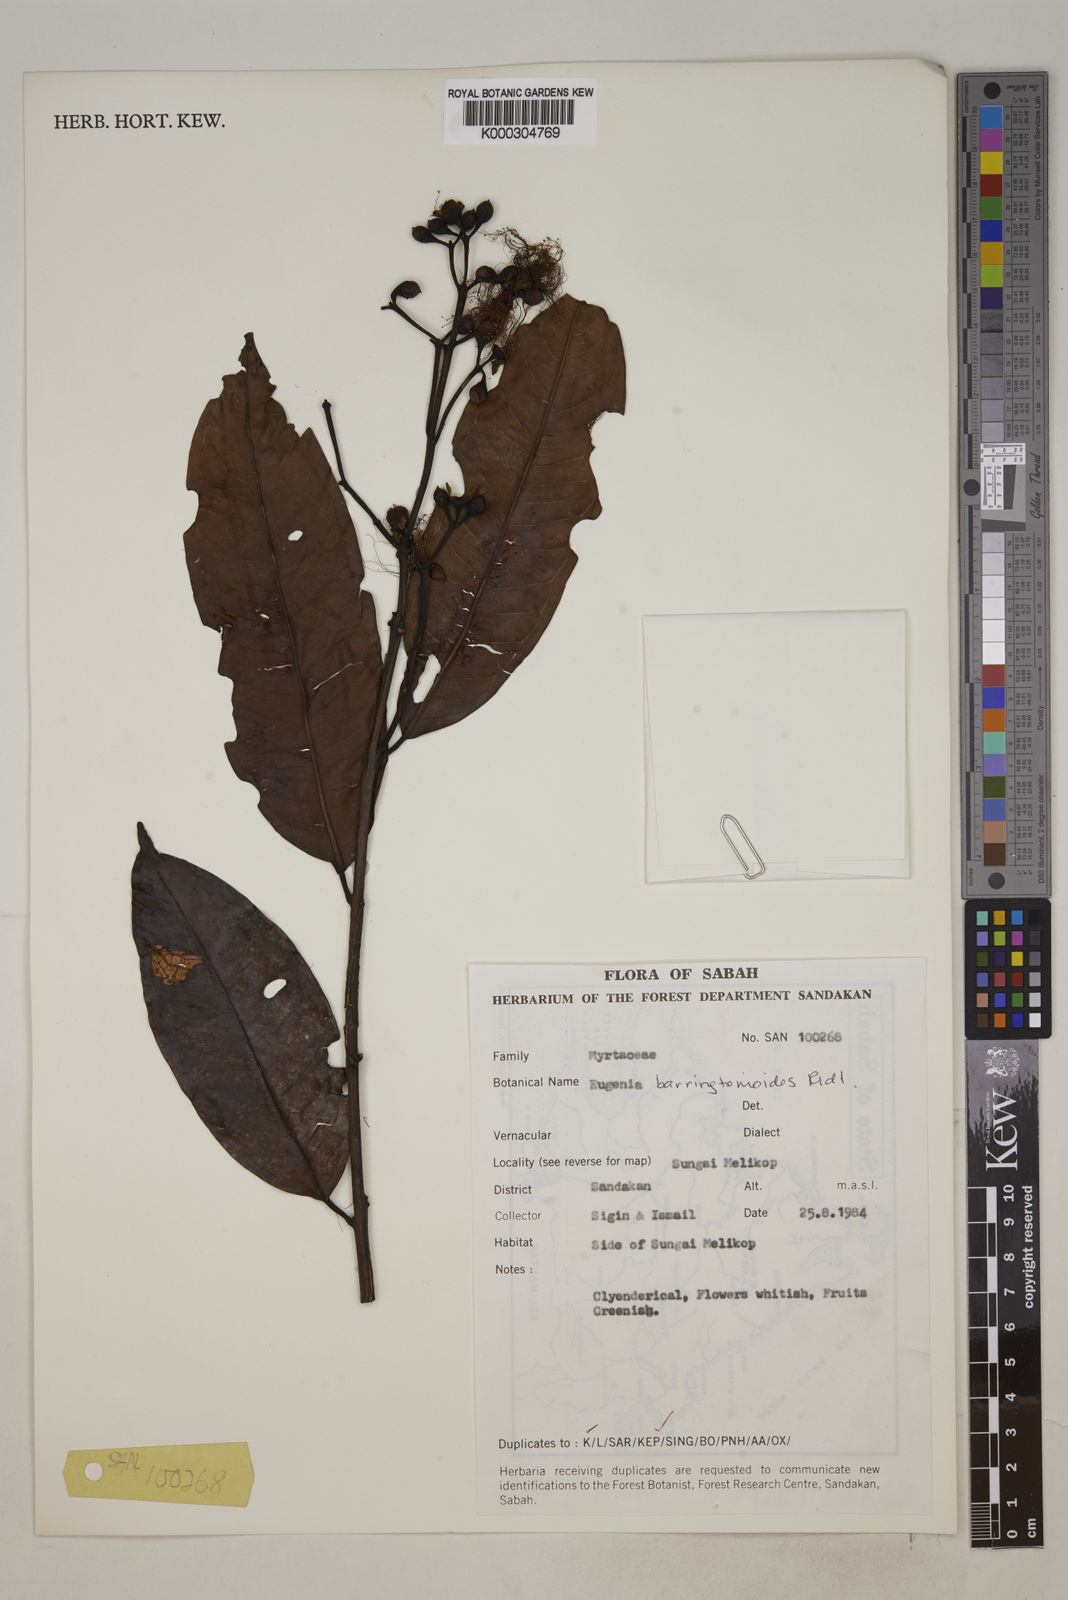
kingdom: Plantae
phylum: Tracheophyta
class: Magnoliopsida
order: Myrtales
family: Myrtaceae
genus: Syzygium
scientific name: Syzygium barringtonioides
